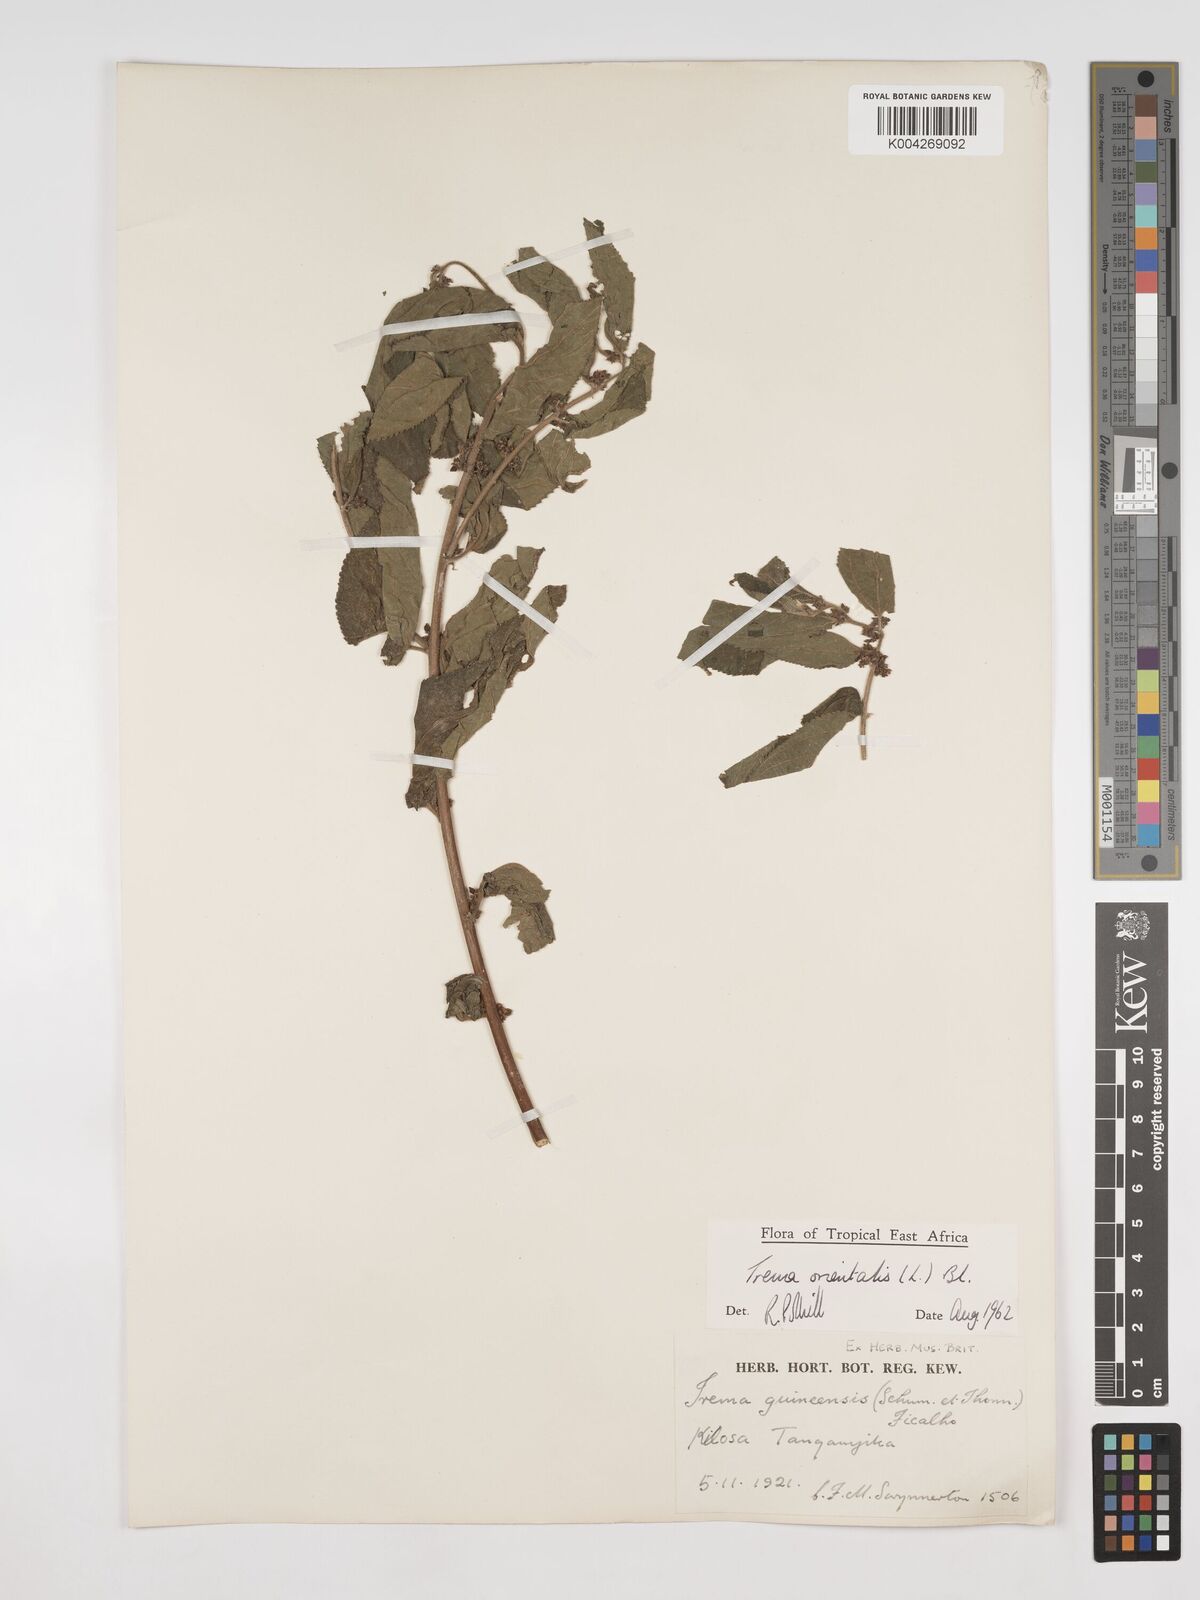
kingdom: Plantae
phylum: Tracheophyta
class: Magnoliopsida
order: Rosales
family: Cannabaceae
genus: Trema
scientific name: Trema orientale
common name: Indian charcoal tree
